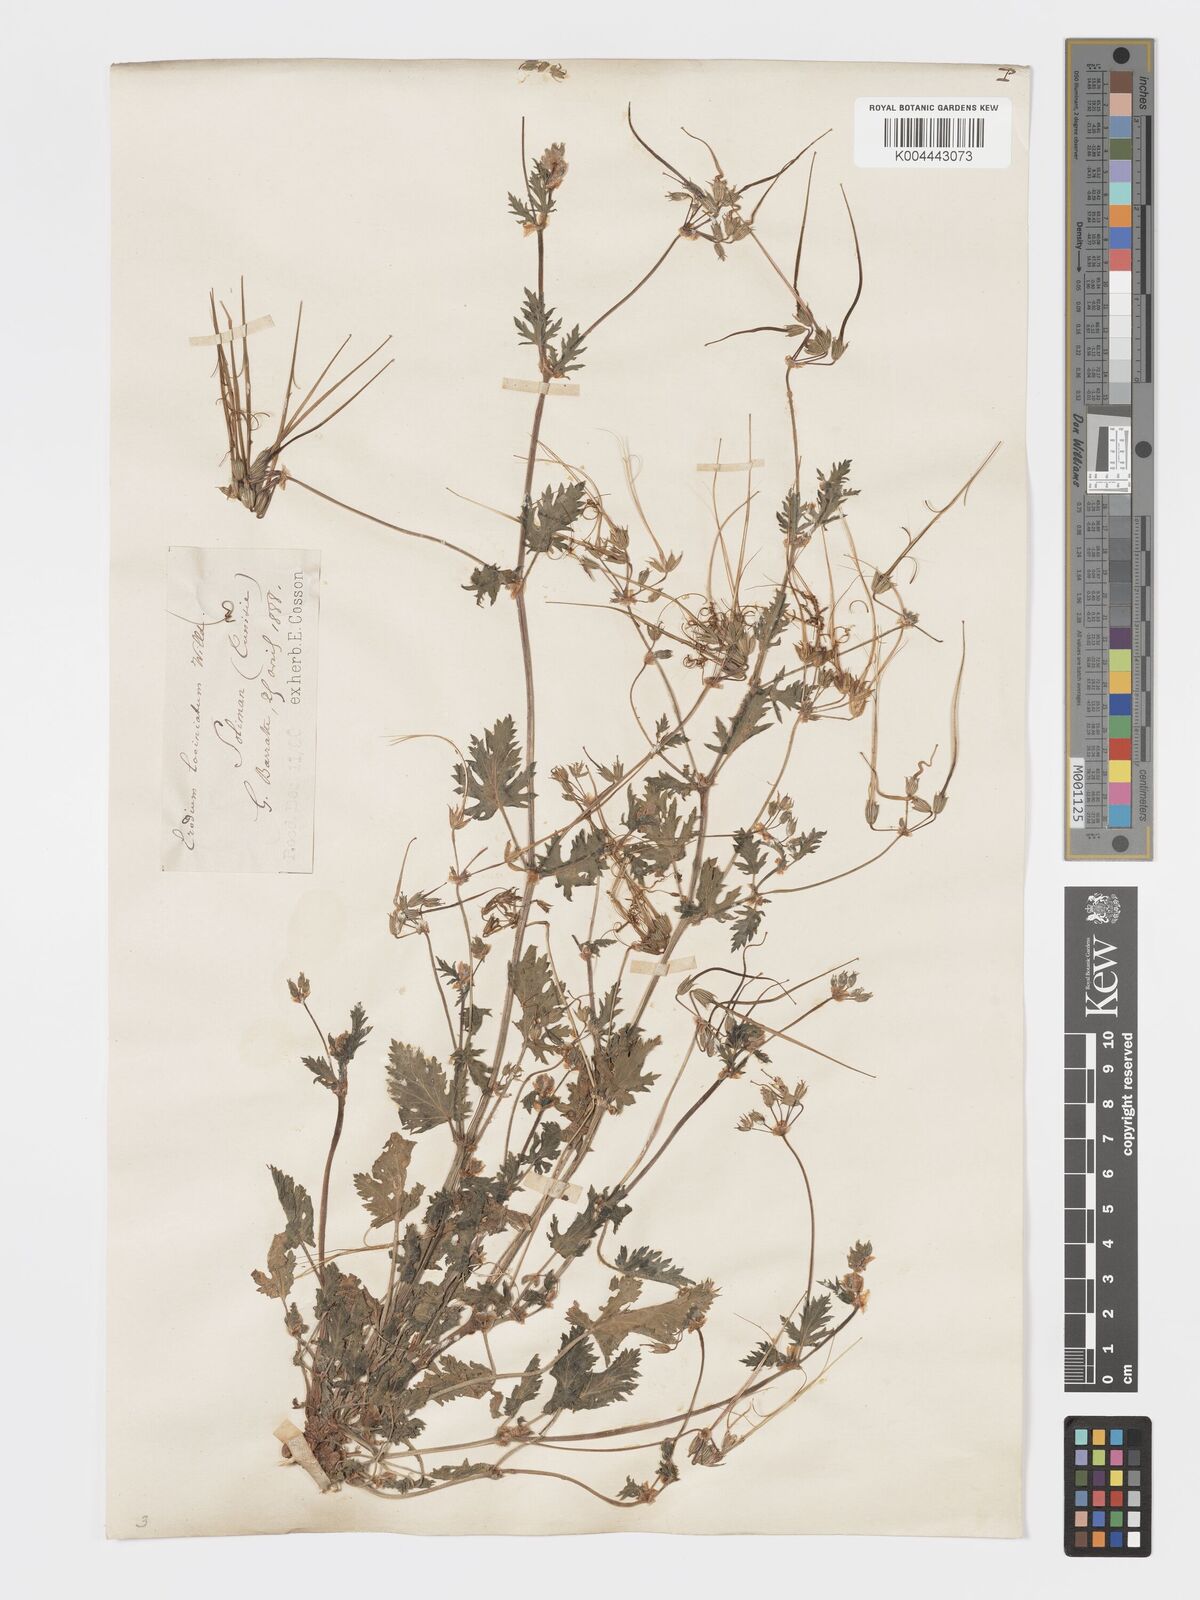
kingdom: Plantae
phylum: Tracheophyta
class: Magnoliopsida
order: Geraniales
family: Geraniaceae
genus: Erodium
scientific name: Erodium laciniatum
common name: Cutleaf stork's bill
